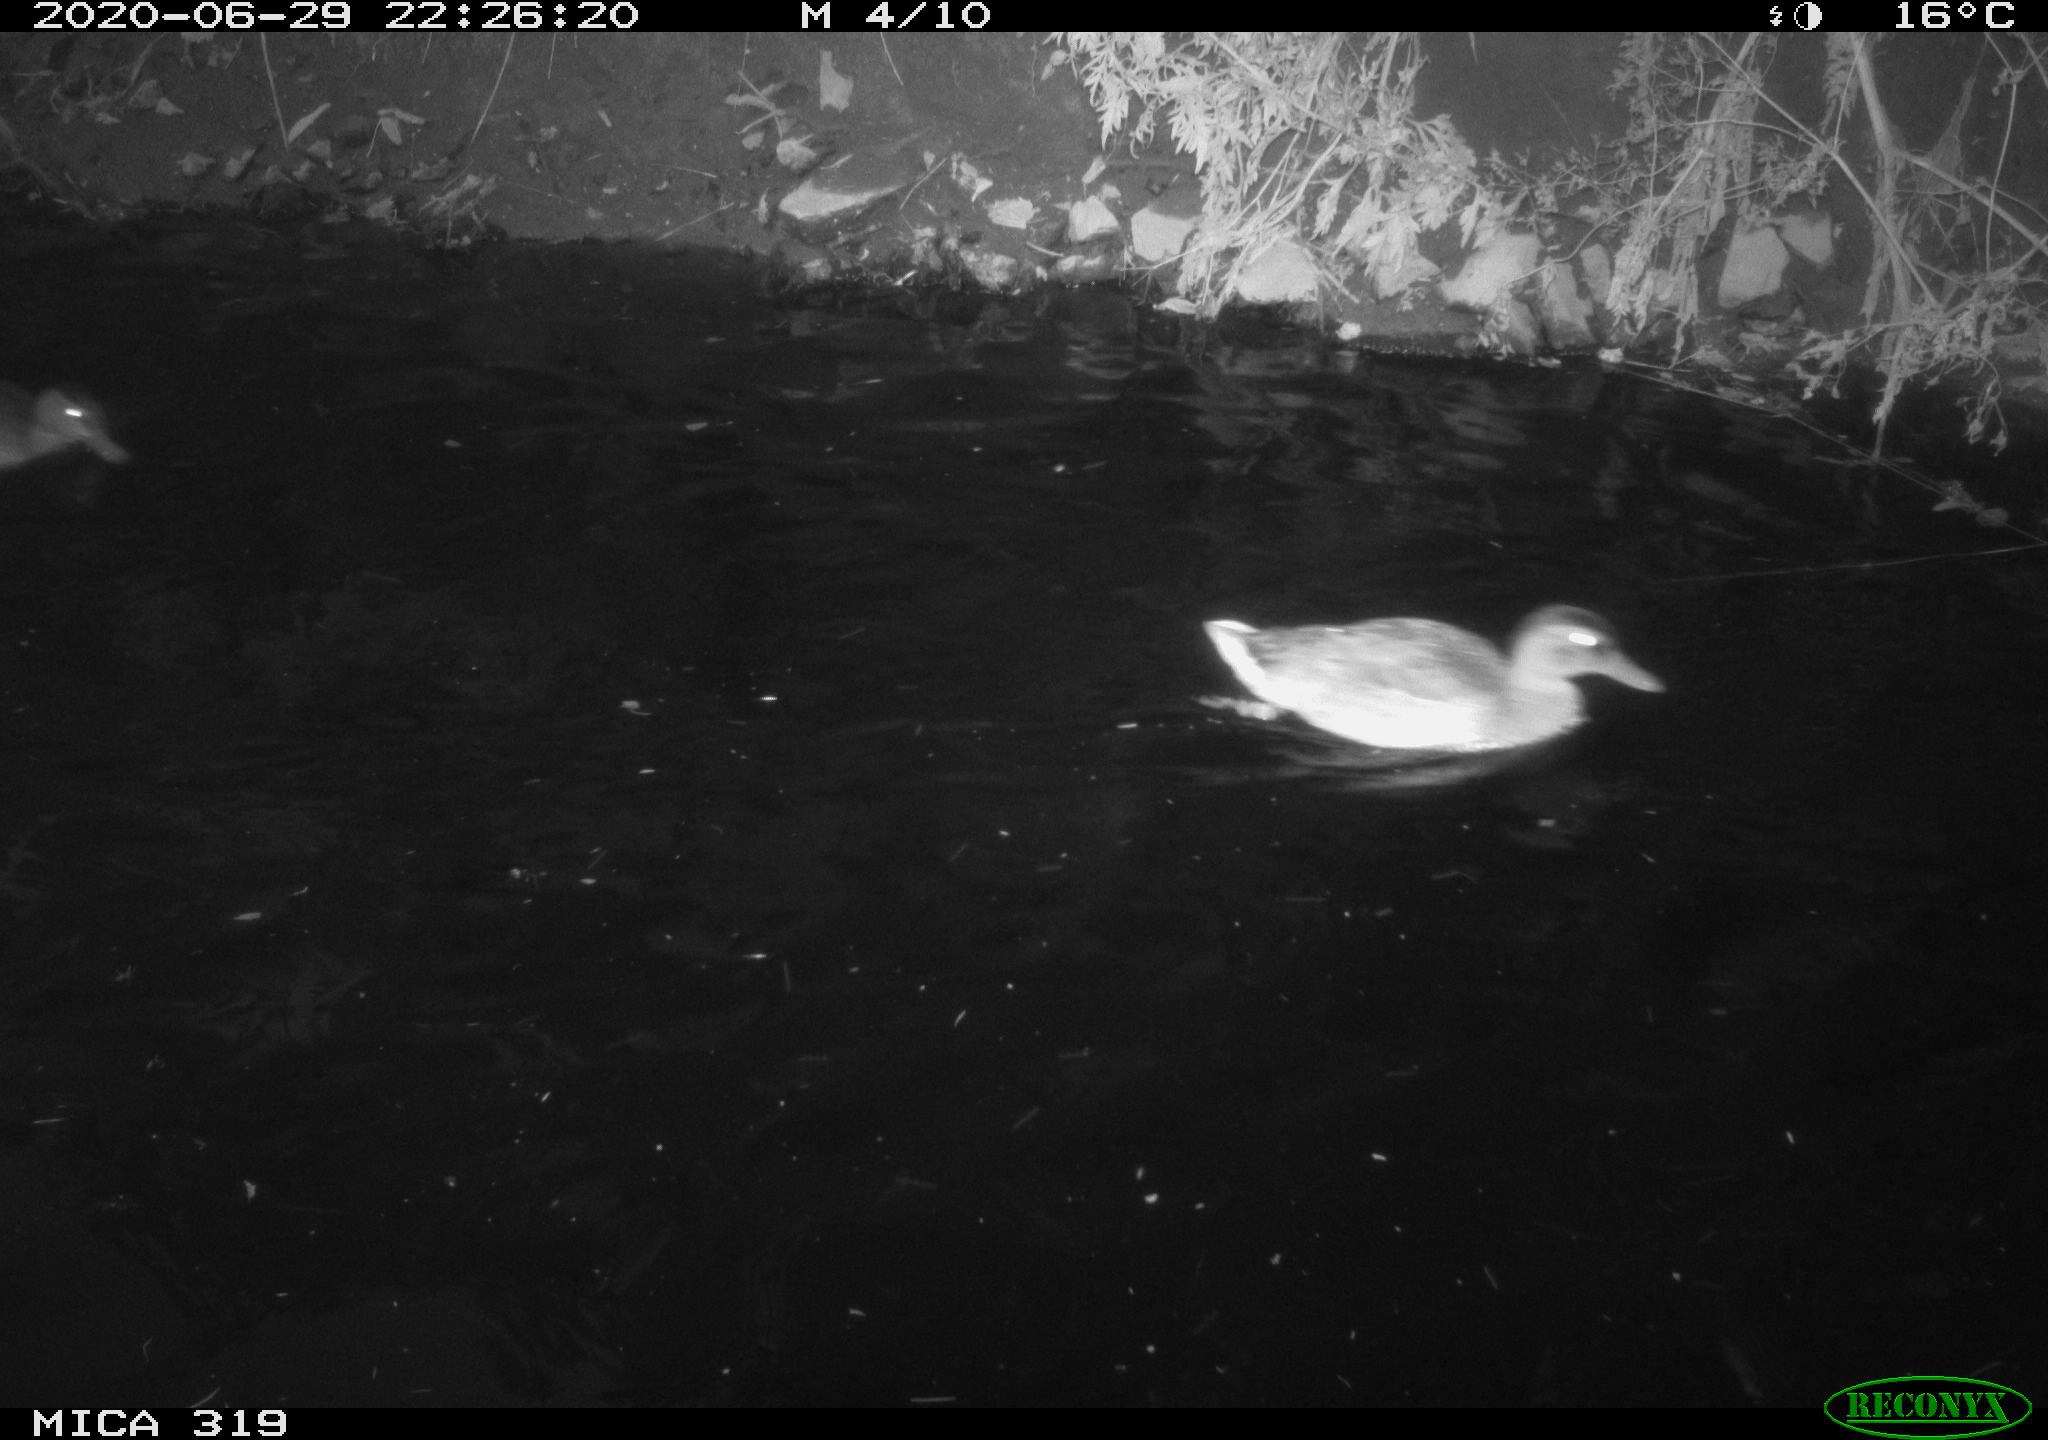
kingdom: Animalia
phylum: Chordata
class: Aves
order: Anseriformes
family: Anatidae
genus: Anas
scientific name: Anas platyrhynchos
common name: Mallard
